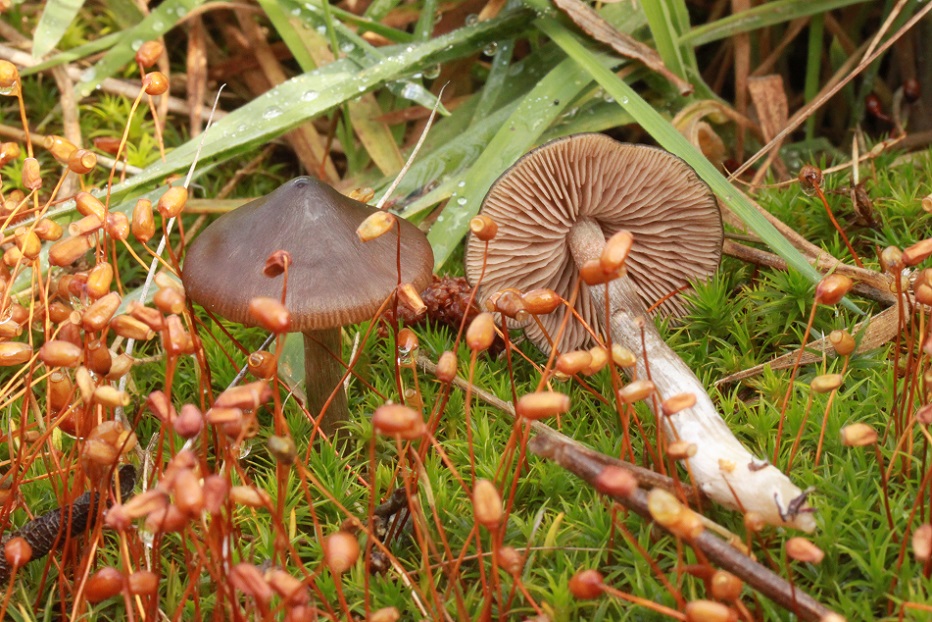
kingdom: Fungi
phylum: Basidiomycota
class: Agaricomycetes
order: Agaricales
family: Entolomataceae
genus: Entoloma
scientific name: Entoloma sphagneti
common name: tørve-rødblad
